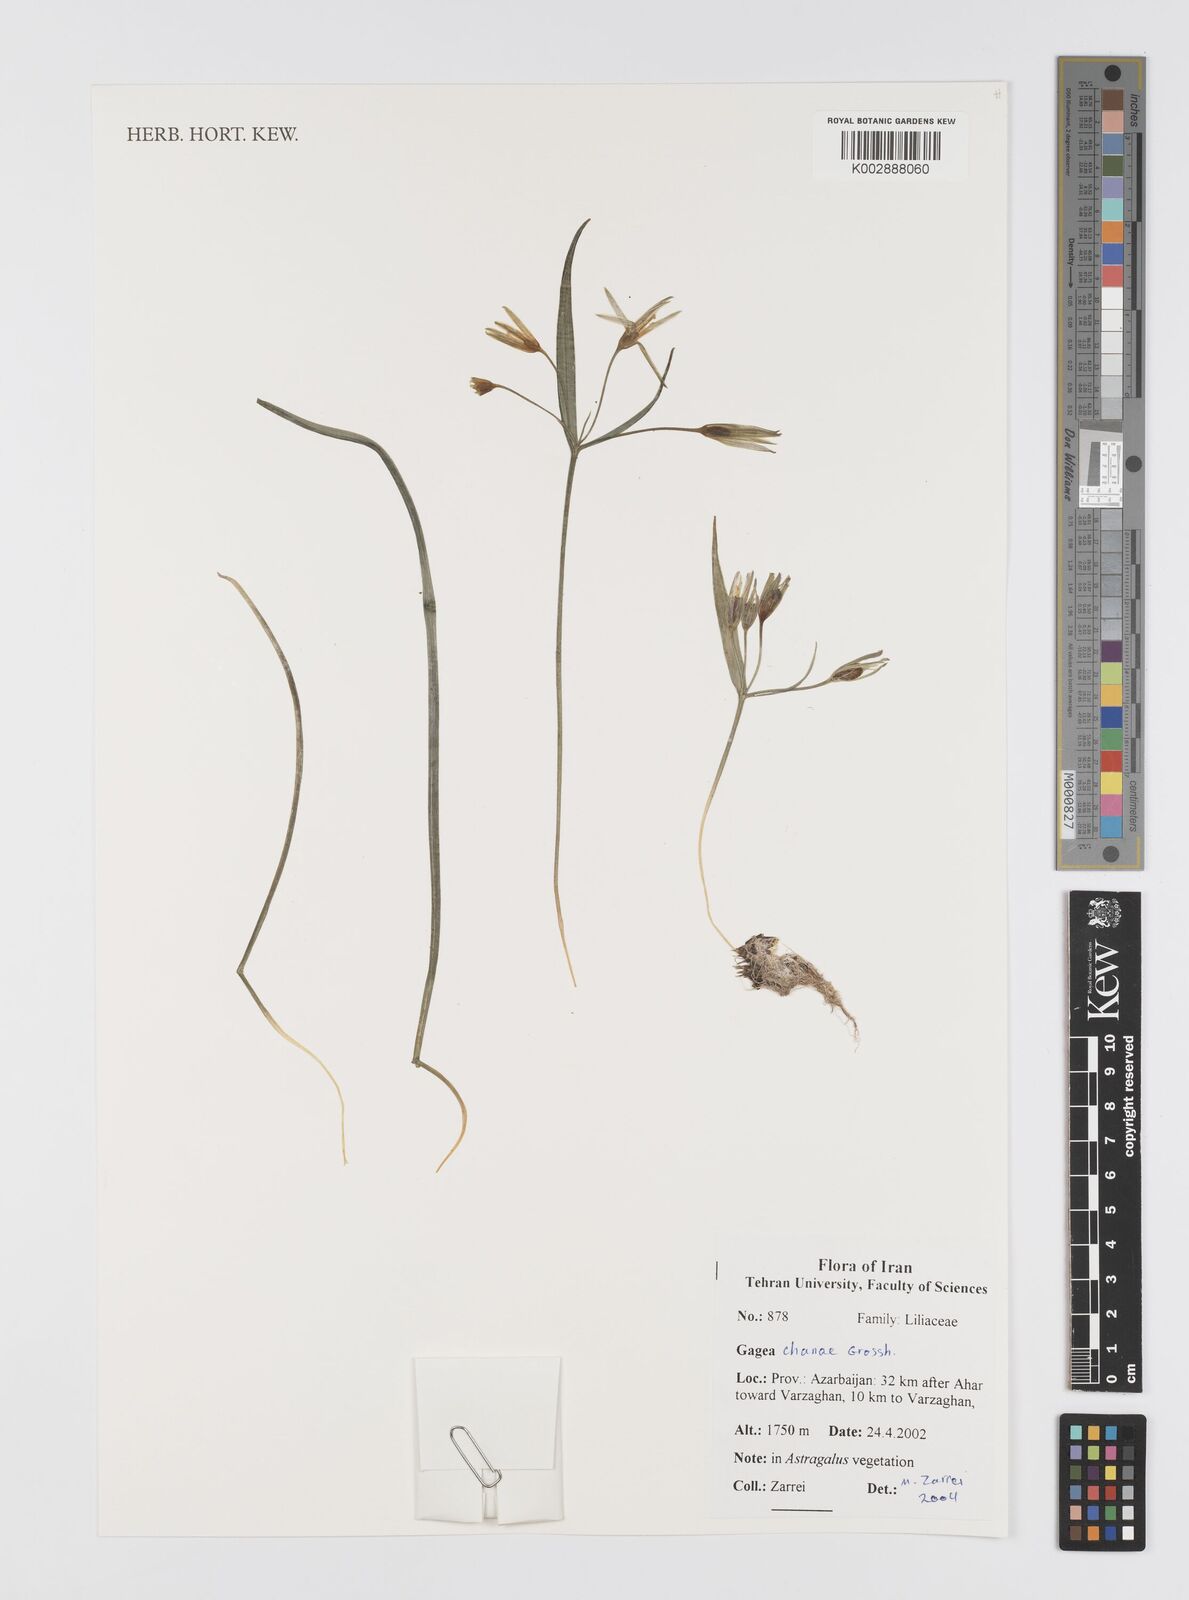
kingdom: Plantae
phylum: Tracheophyta
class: Liliopsida
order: Liliales
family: Liliaceae
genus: Gagea
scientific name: Gagea chanae
